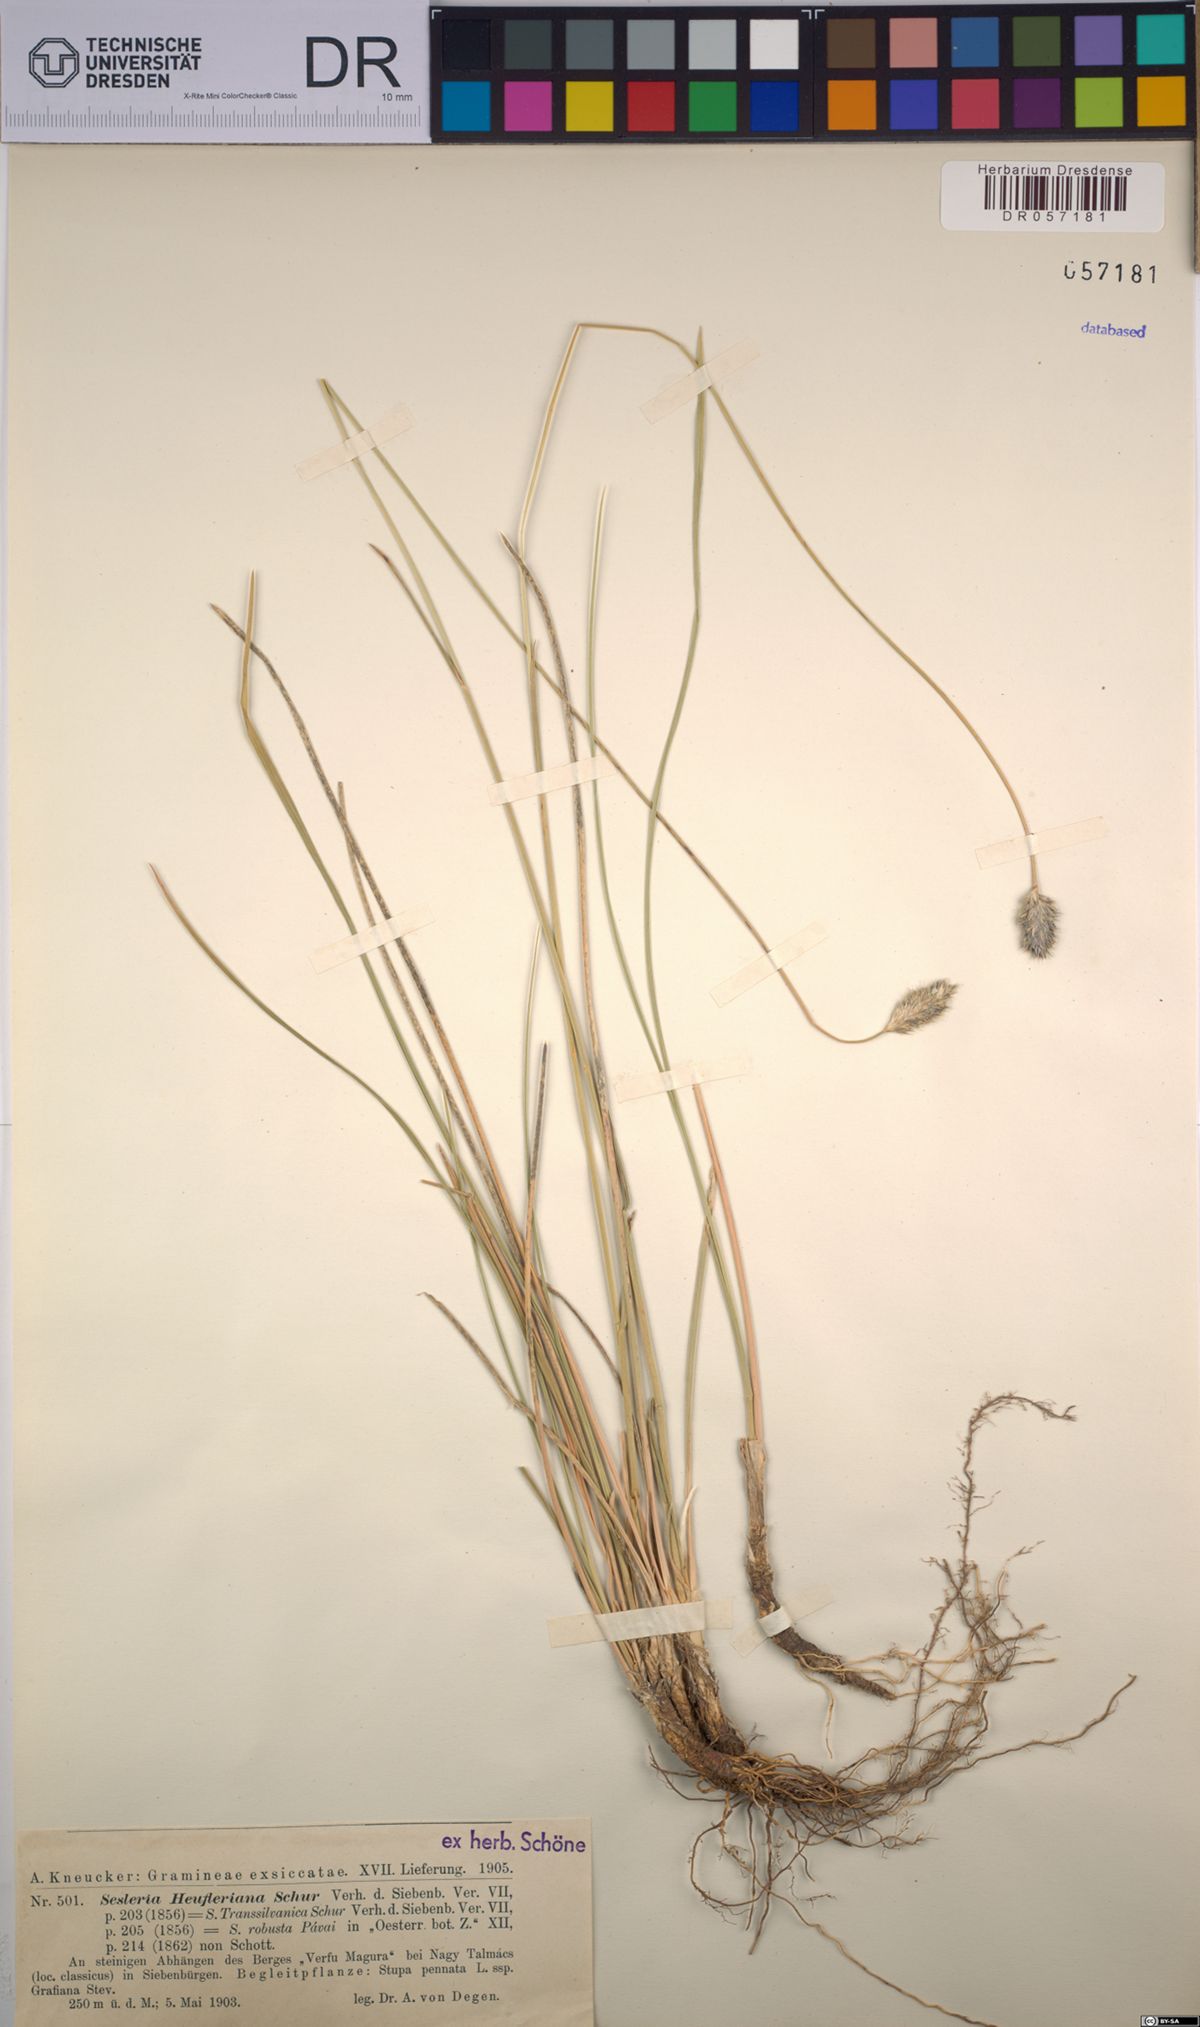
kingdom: Plantae
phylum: Tracheophyta
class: Liliopsida
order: Poales
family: Poaceae
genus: Sesleria
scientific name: Sesleria heufleriana
